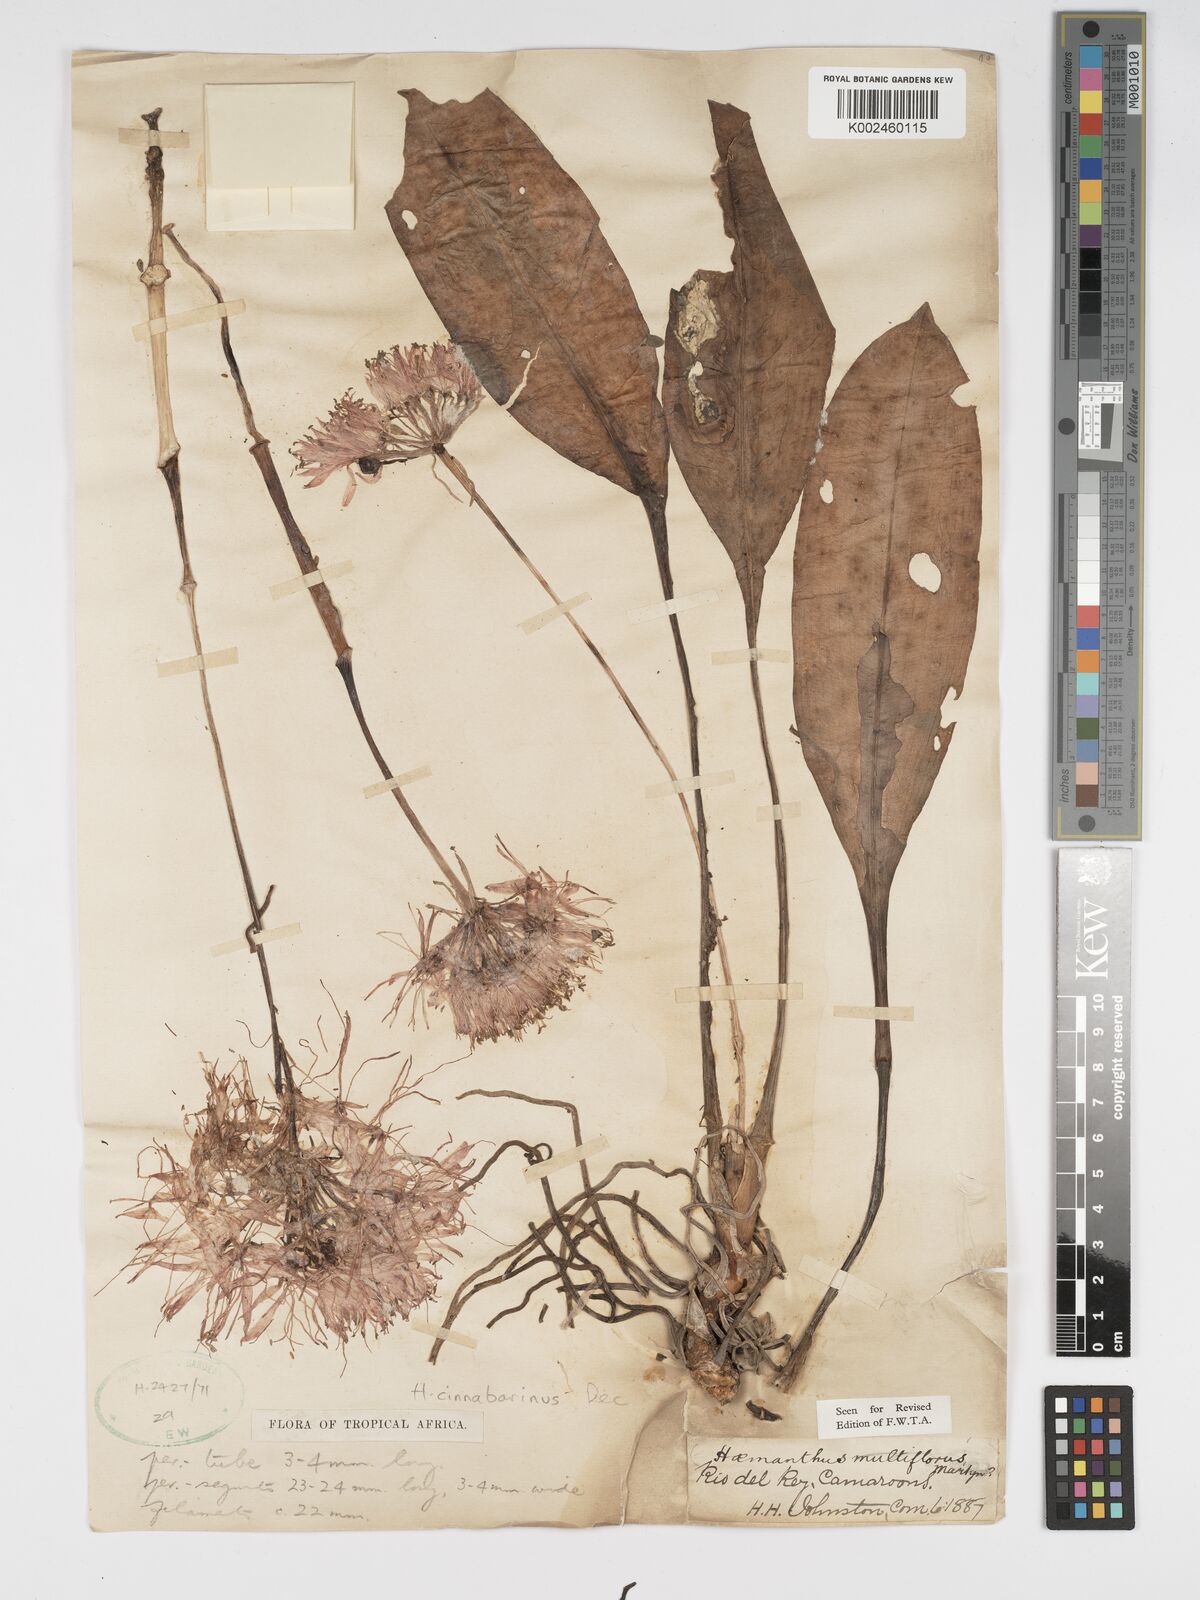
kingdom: Plantae
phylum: Tracheophyta
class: Liliopsida
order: Asparagales
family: Amaryllidaceae
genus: Scadoxus
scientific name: Scadoxus cinnabarinus
